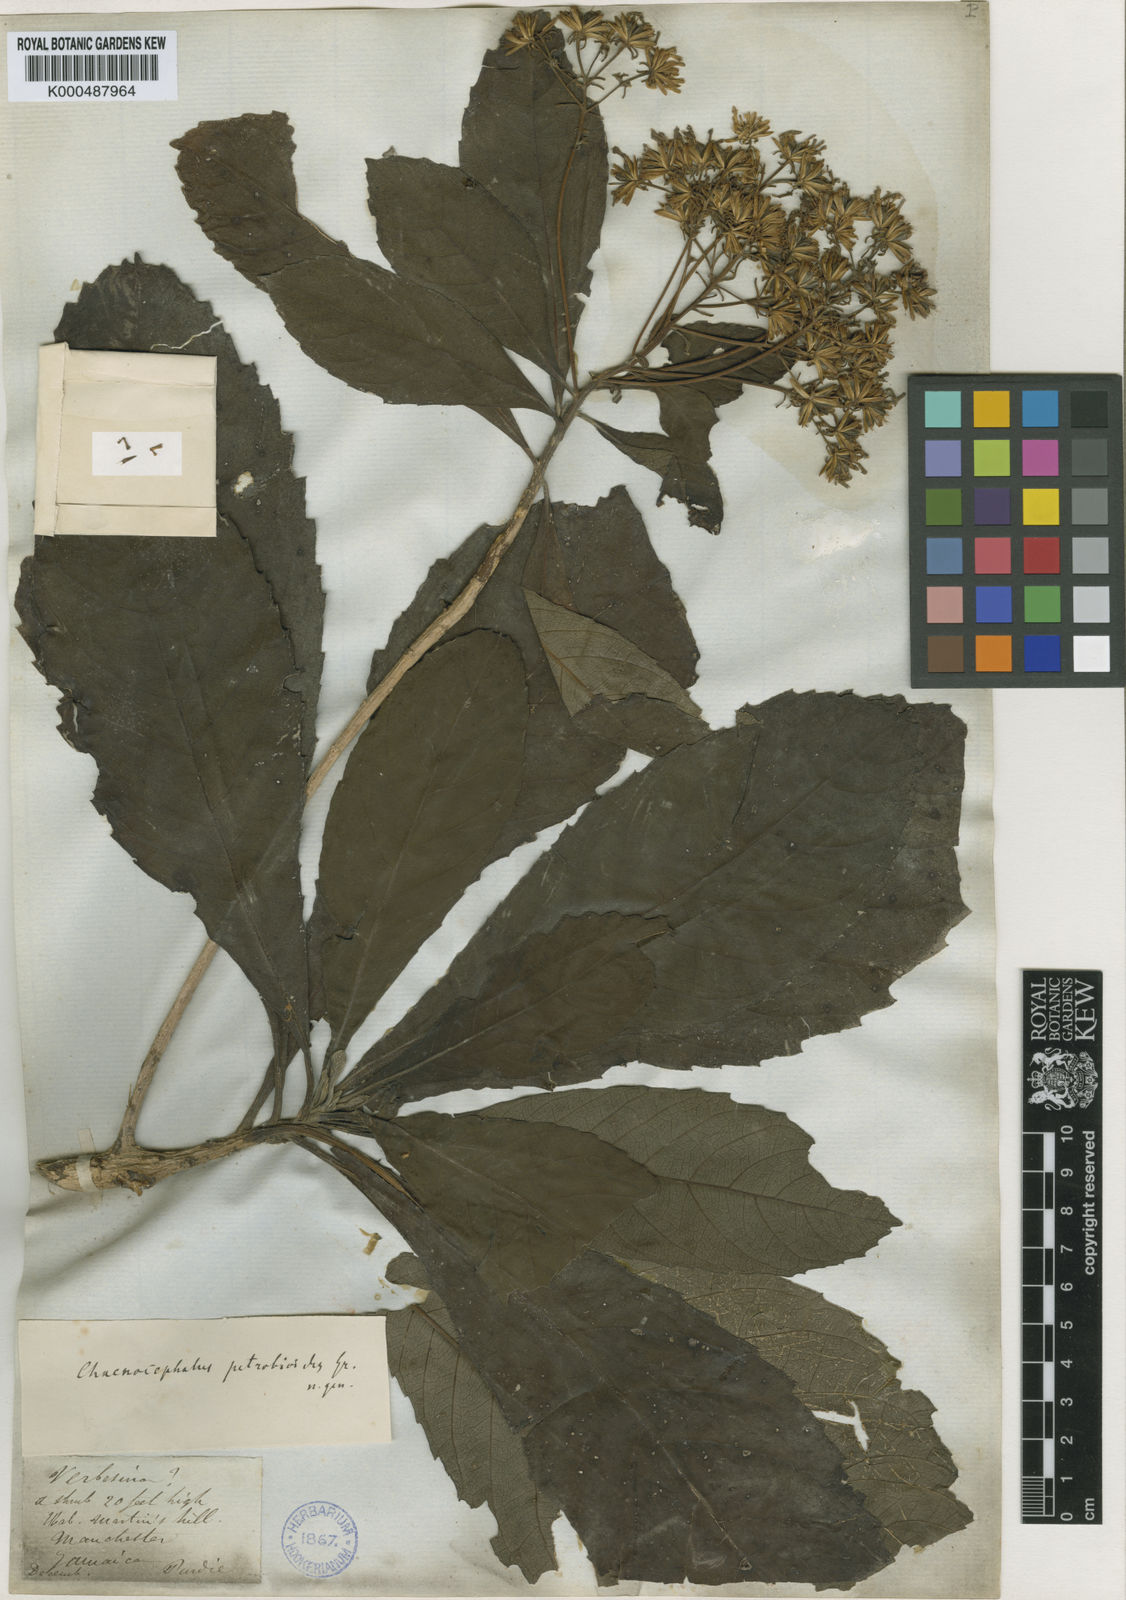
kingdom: Plantae
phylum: Tracheophyta
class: Magnoliopsida
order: Asterales
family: Asteraceae
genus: Verbesina
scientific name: Verbesina petrobioides
